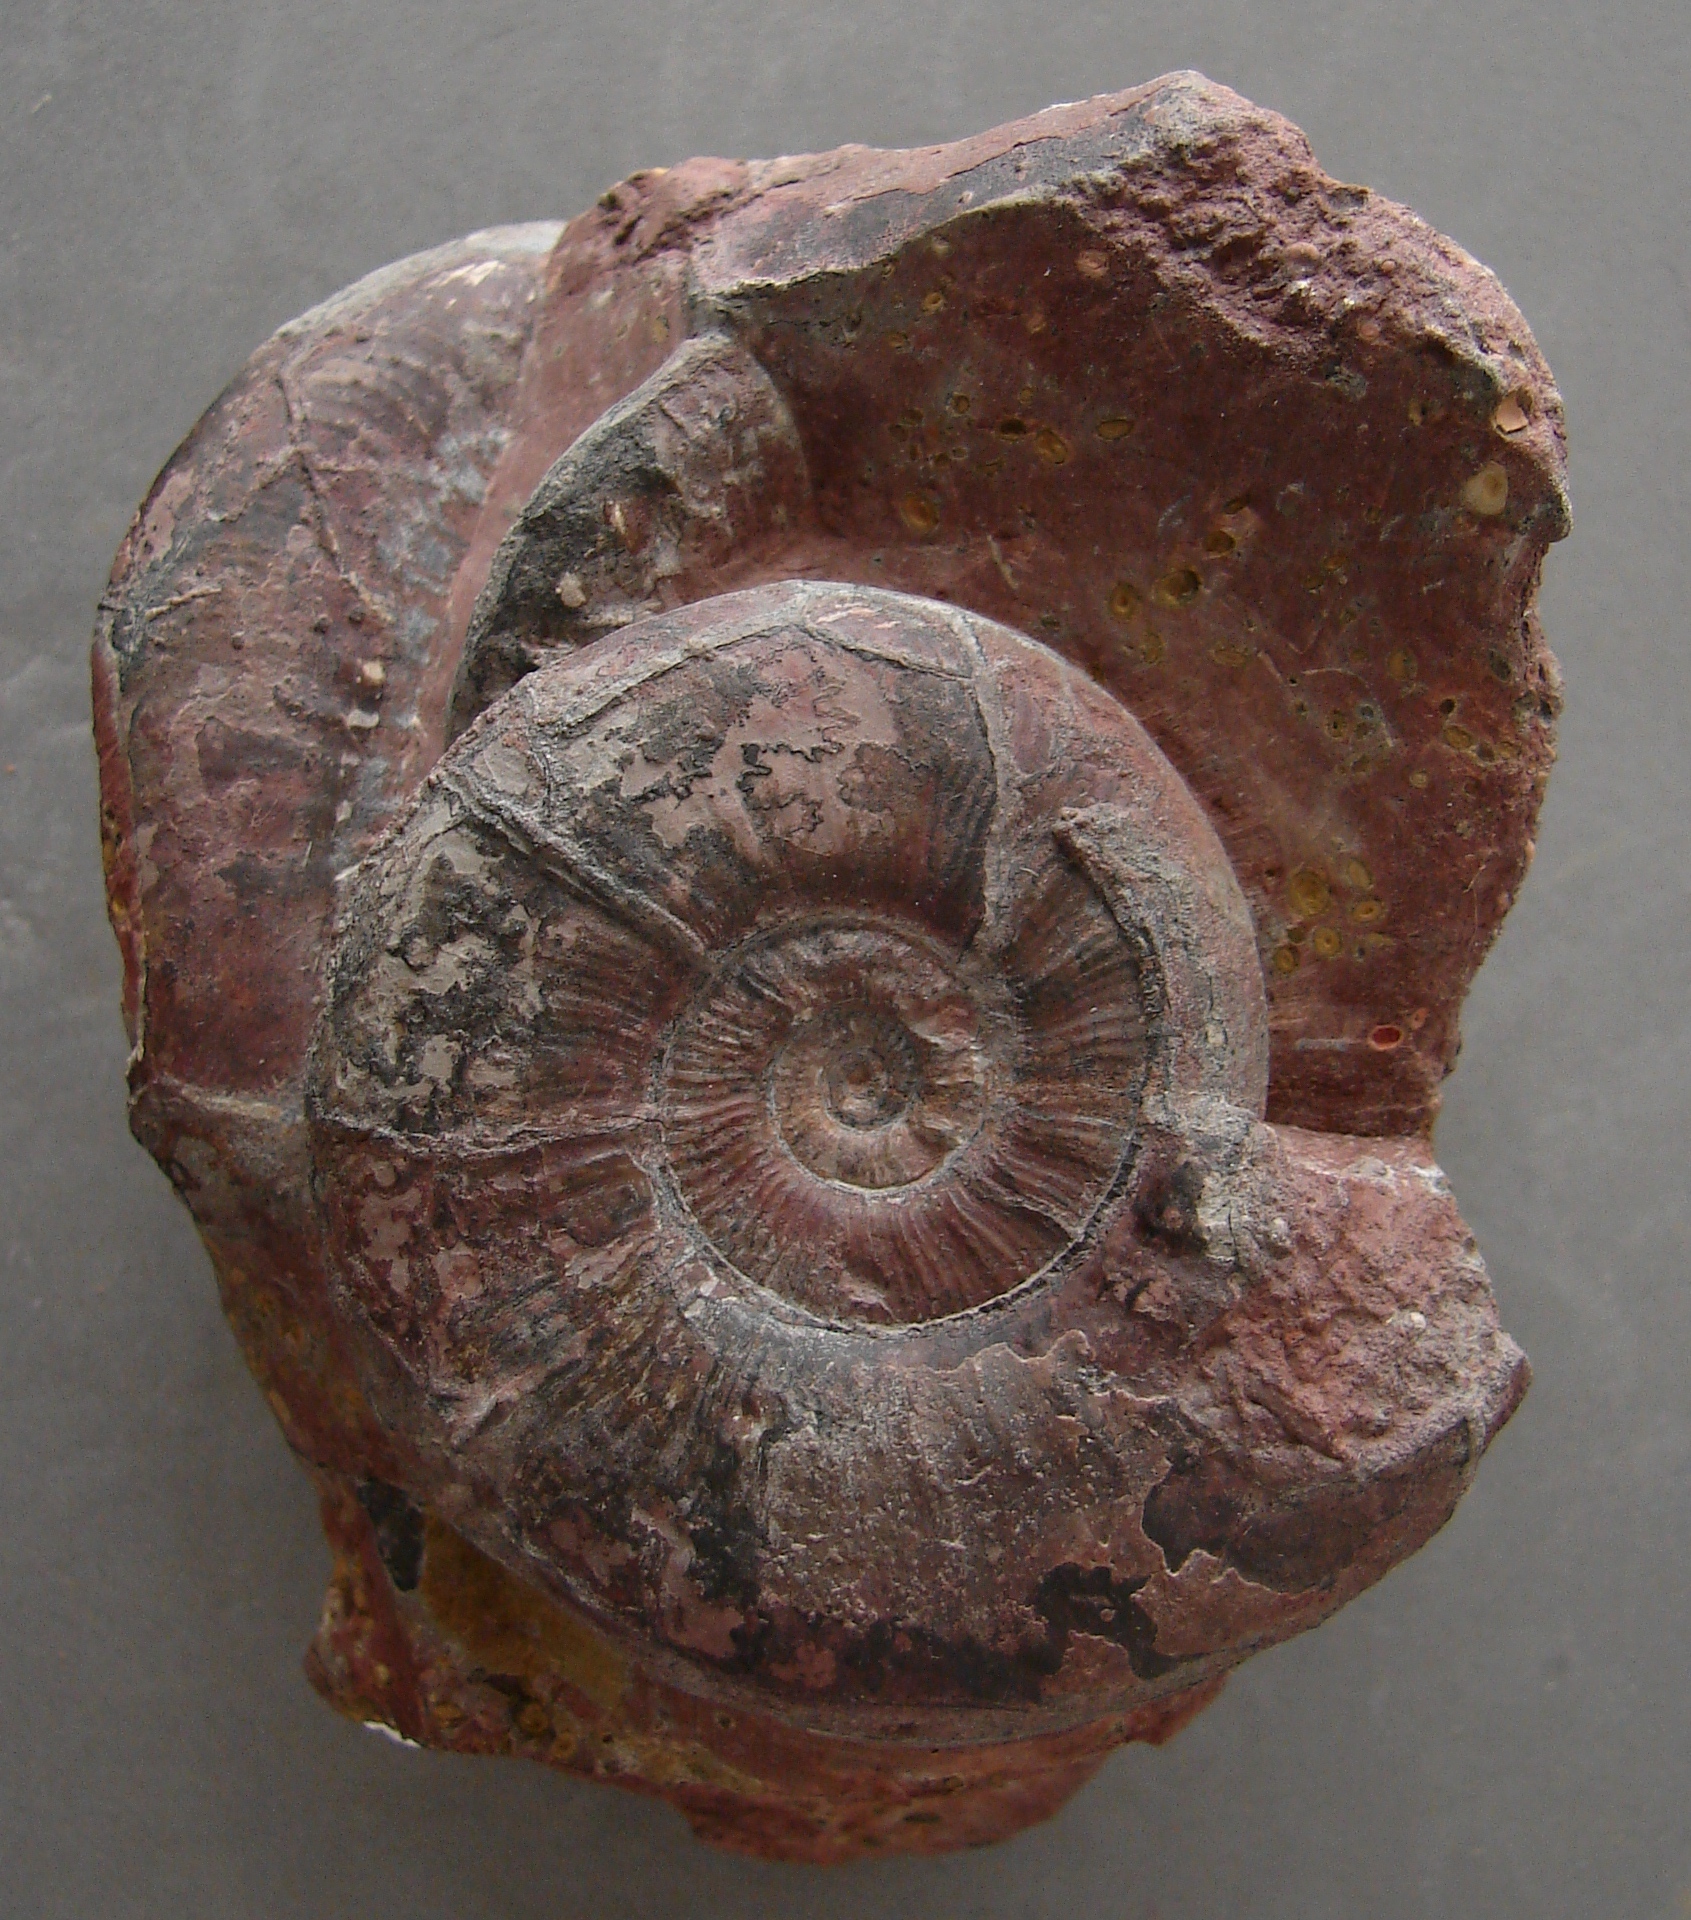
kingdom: Animalia
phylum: Mollusca
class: Cephalopoda
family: Hildoceratidae
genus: Pleydellia
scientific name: Pleydellia Cotteswoldia subcompta
